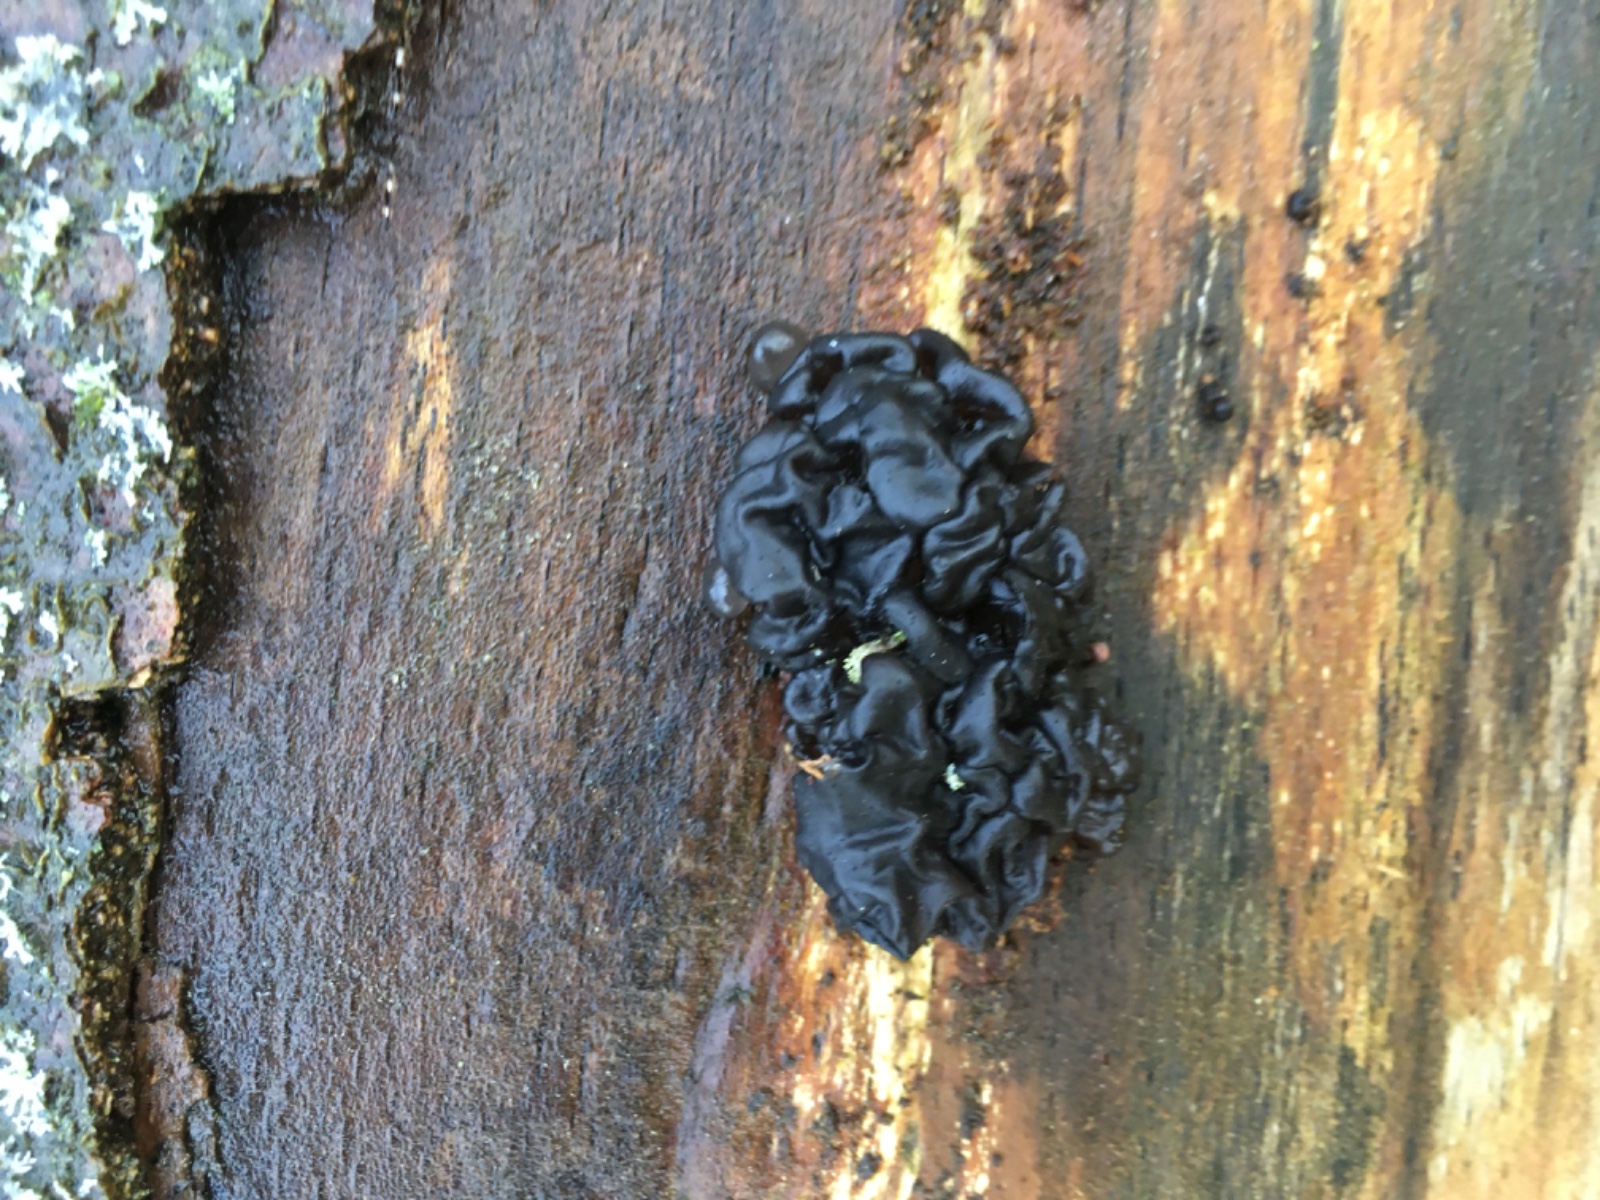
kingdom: Fungi
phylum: Basidiomycota
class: Agaricomycetes
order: Auriculariales
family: Auriculariaceae
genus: Exidia
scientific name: Exidia nigricans
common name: almindelig bævretop
